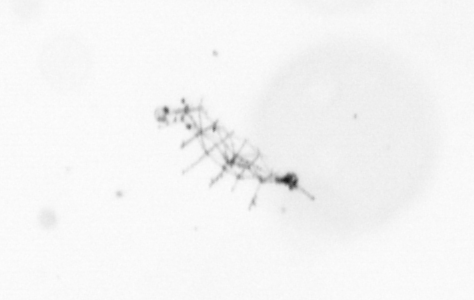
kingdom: Chromista
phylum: Ochrophyta
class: Bacillariophyceae
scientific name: Bacillariophyceae
